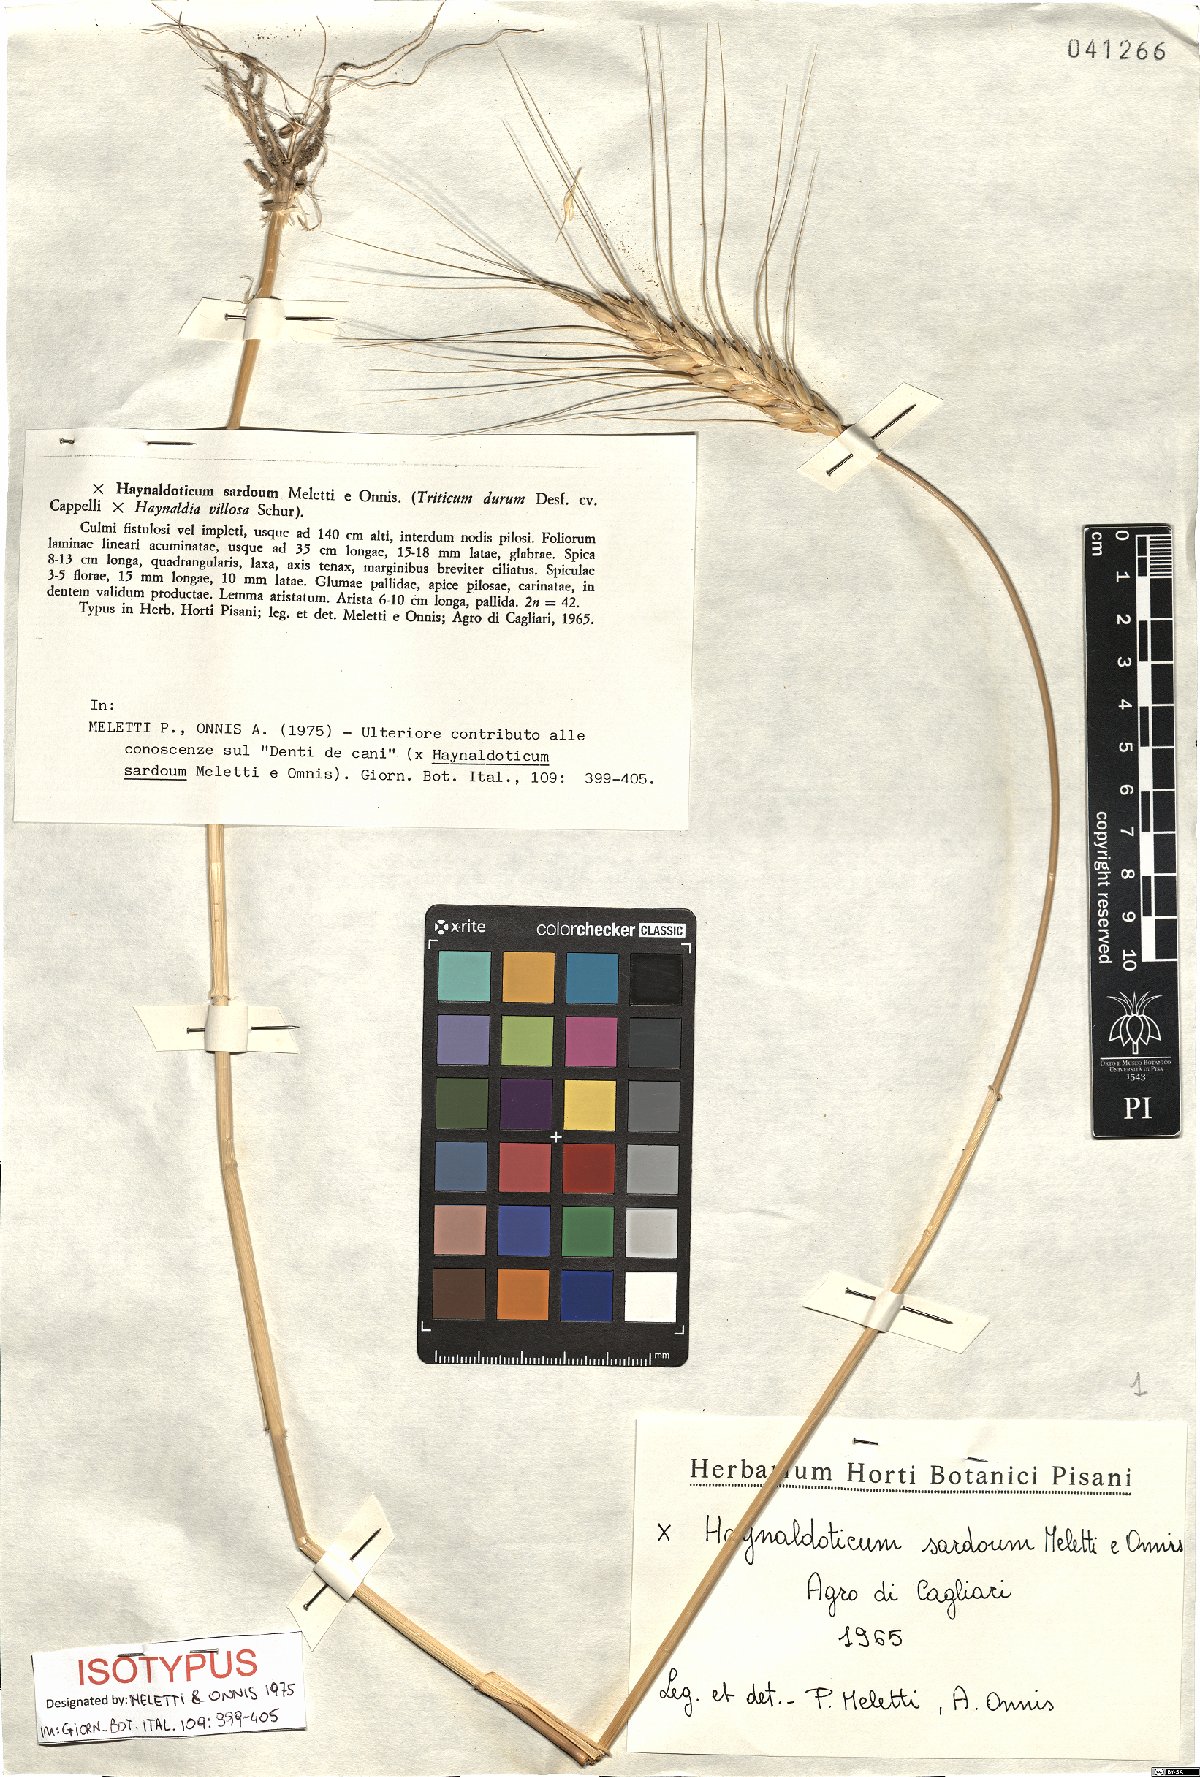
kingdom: Plantae
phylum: Tracheophyta
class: Liliopsida
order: Poales
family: Poaceae
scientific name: Poaceae
